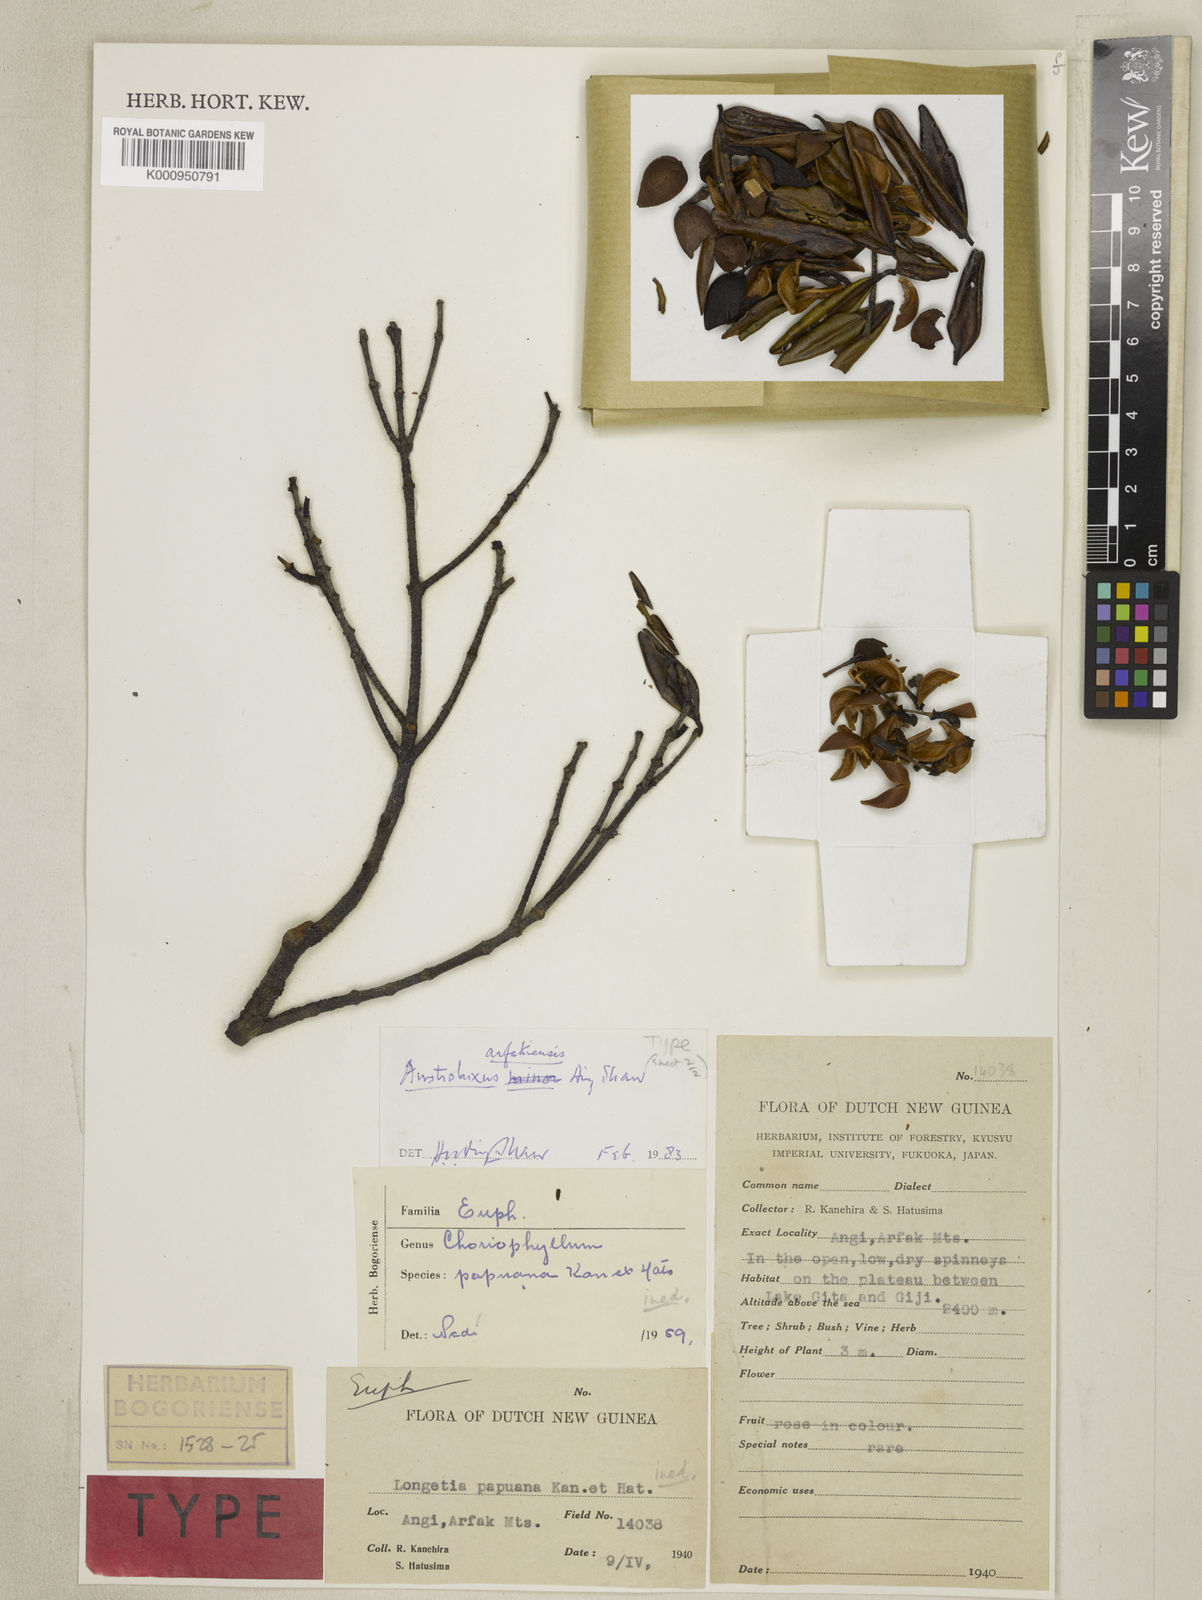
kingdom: Plantae
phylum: Tracheophyta
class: Magnoliopsida
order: Malpighiales
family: Picrodendraceae
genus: Austrobuxus
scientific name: Austrobuxus
